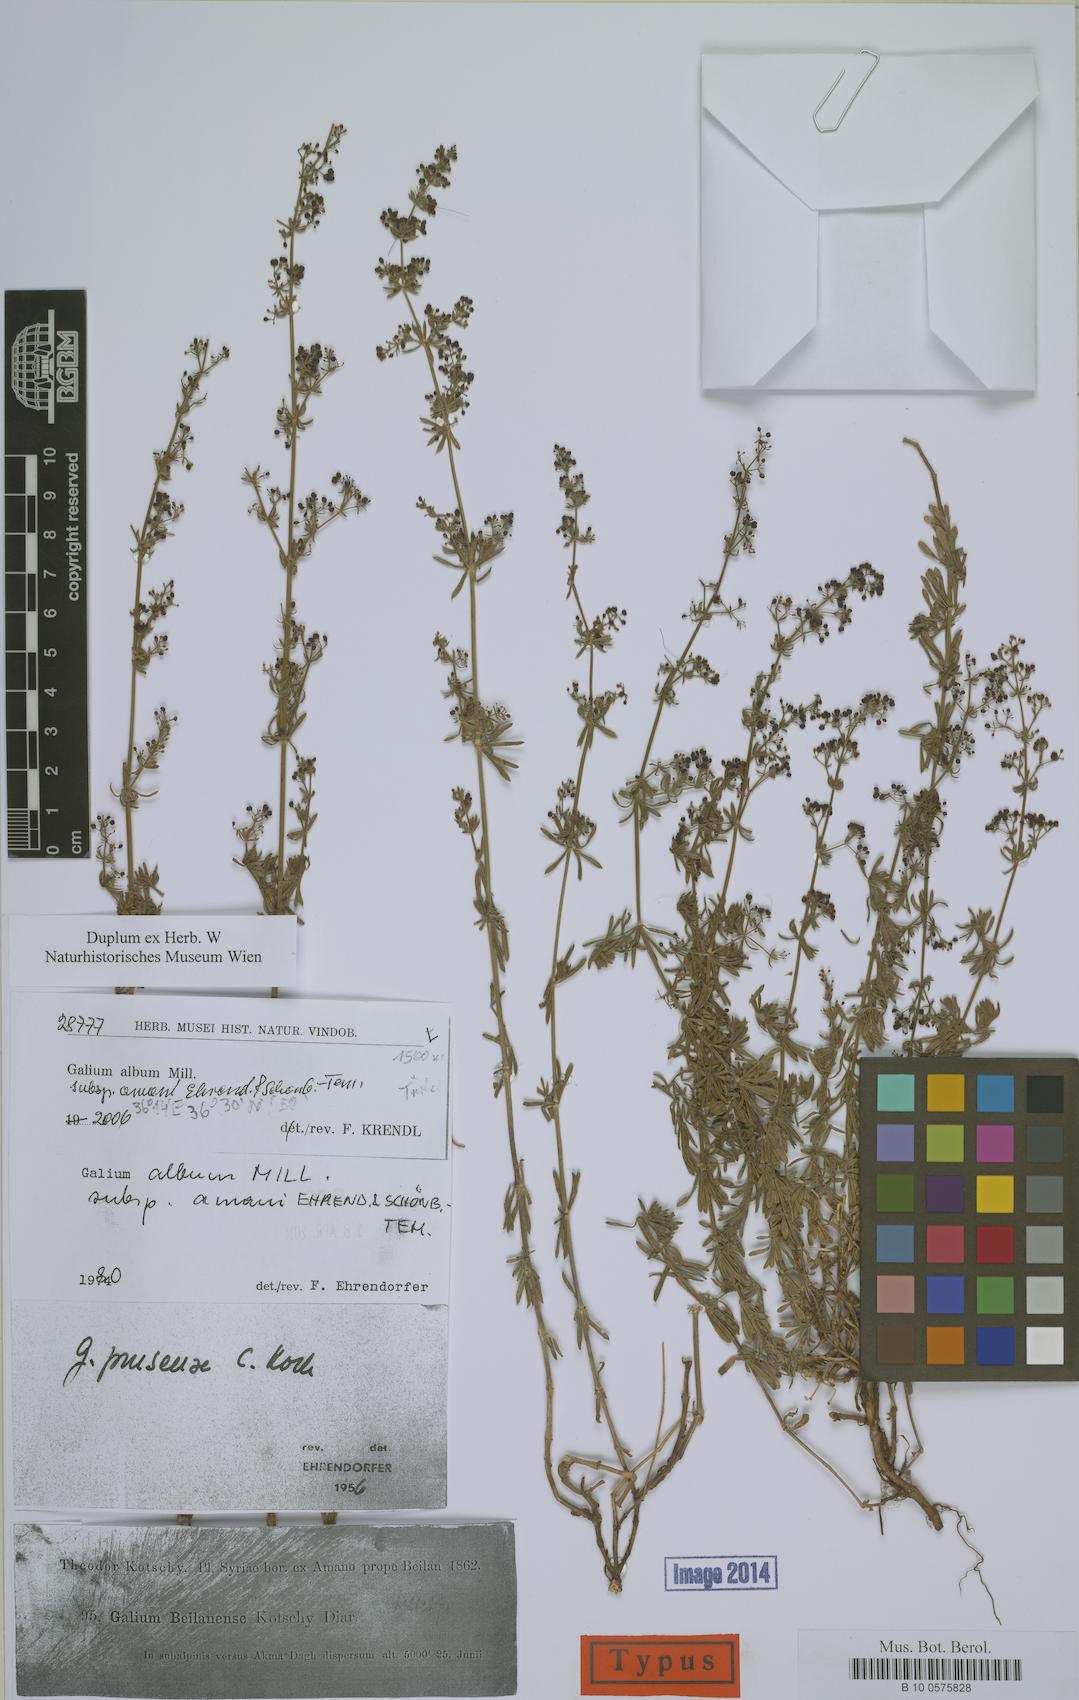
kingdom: Plantae
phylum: Tracheophyta
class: Magnoliopsida
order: Gentianales
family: Rubiaceae
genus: Galium
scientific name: Galium album
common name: White bedstraw
